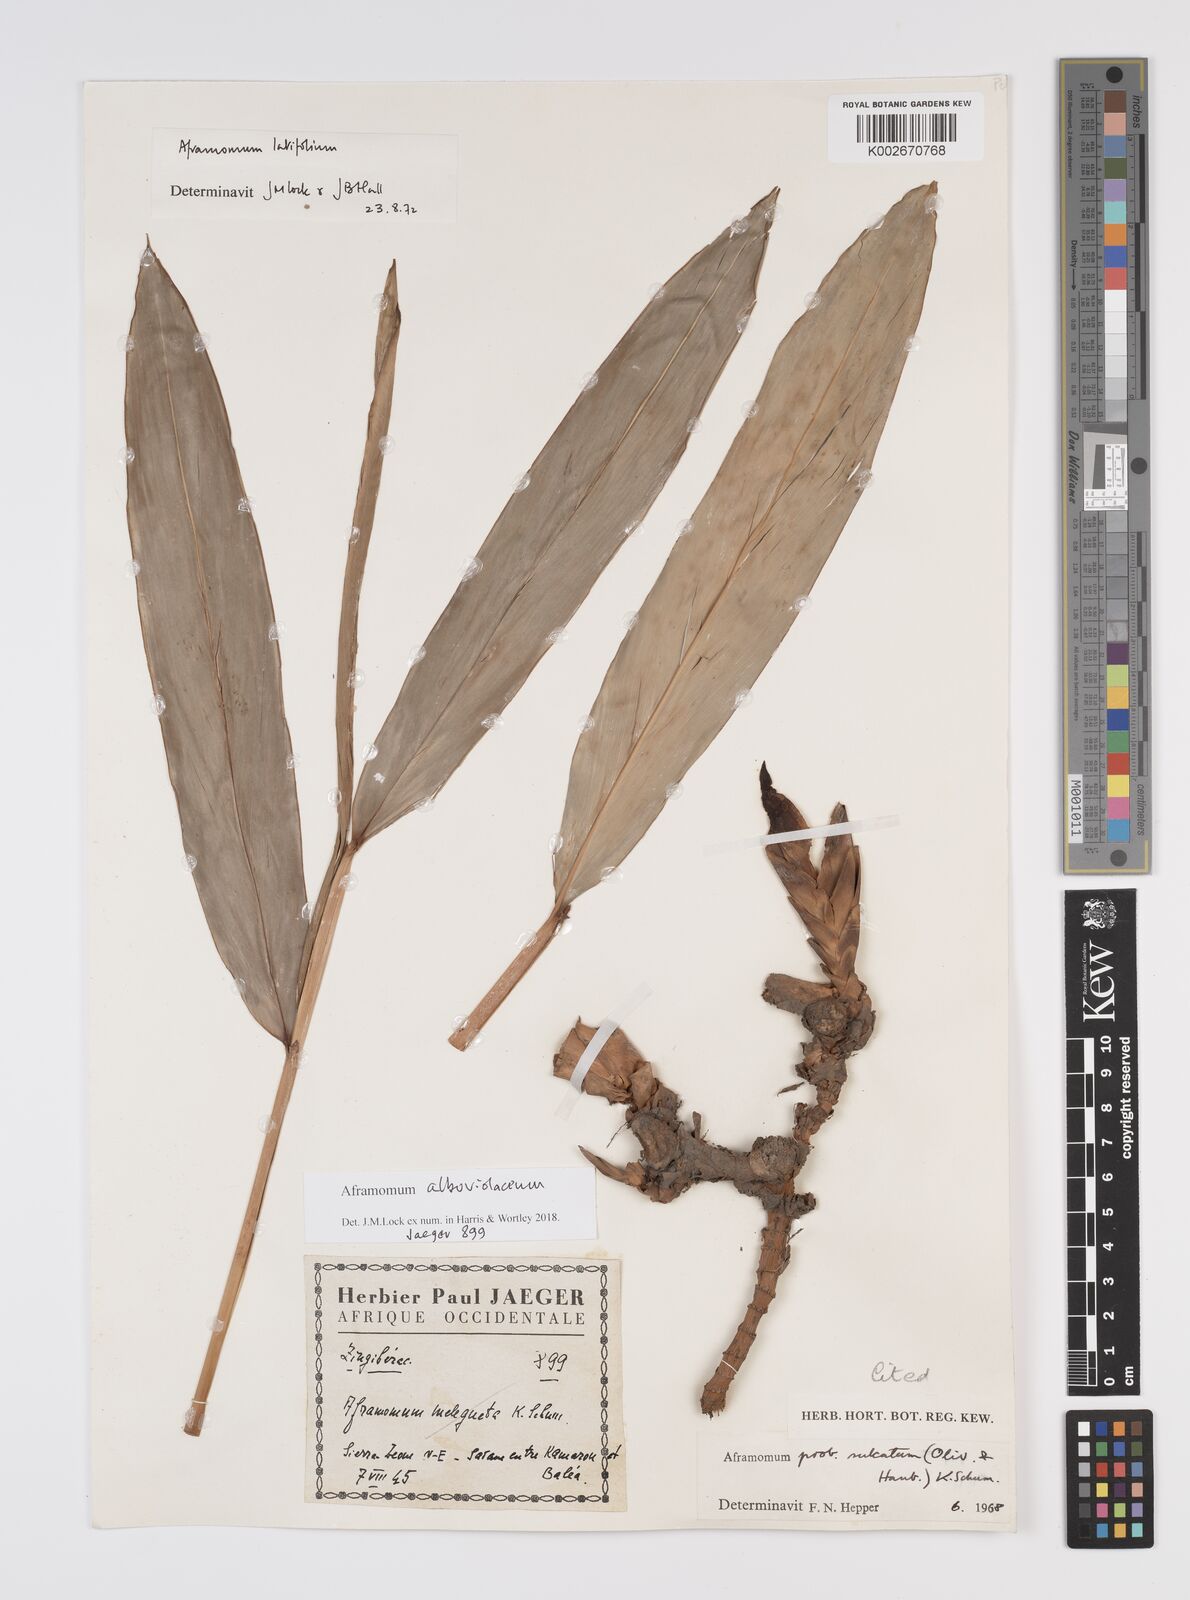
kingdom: Plantae
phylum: Tracheophyta
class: Liliopsida
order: Zingiberales
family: Zingiberaceae
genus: Aframomum
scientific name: Aframomum alboviolaceum
